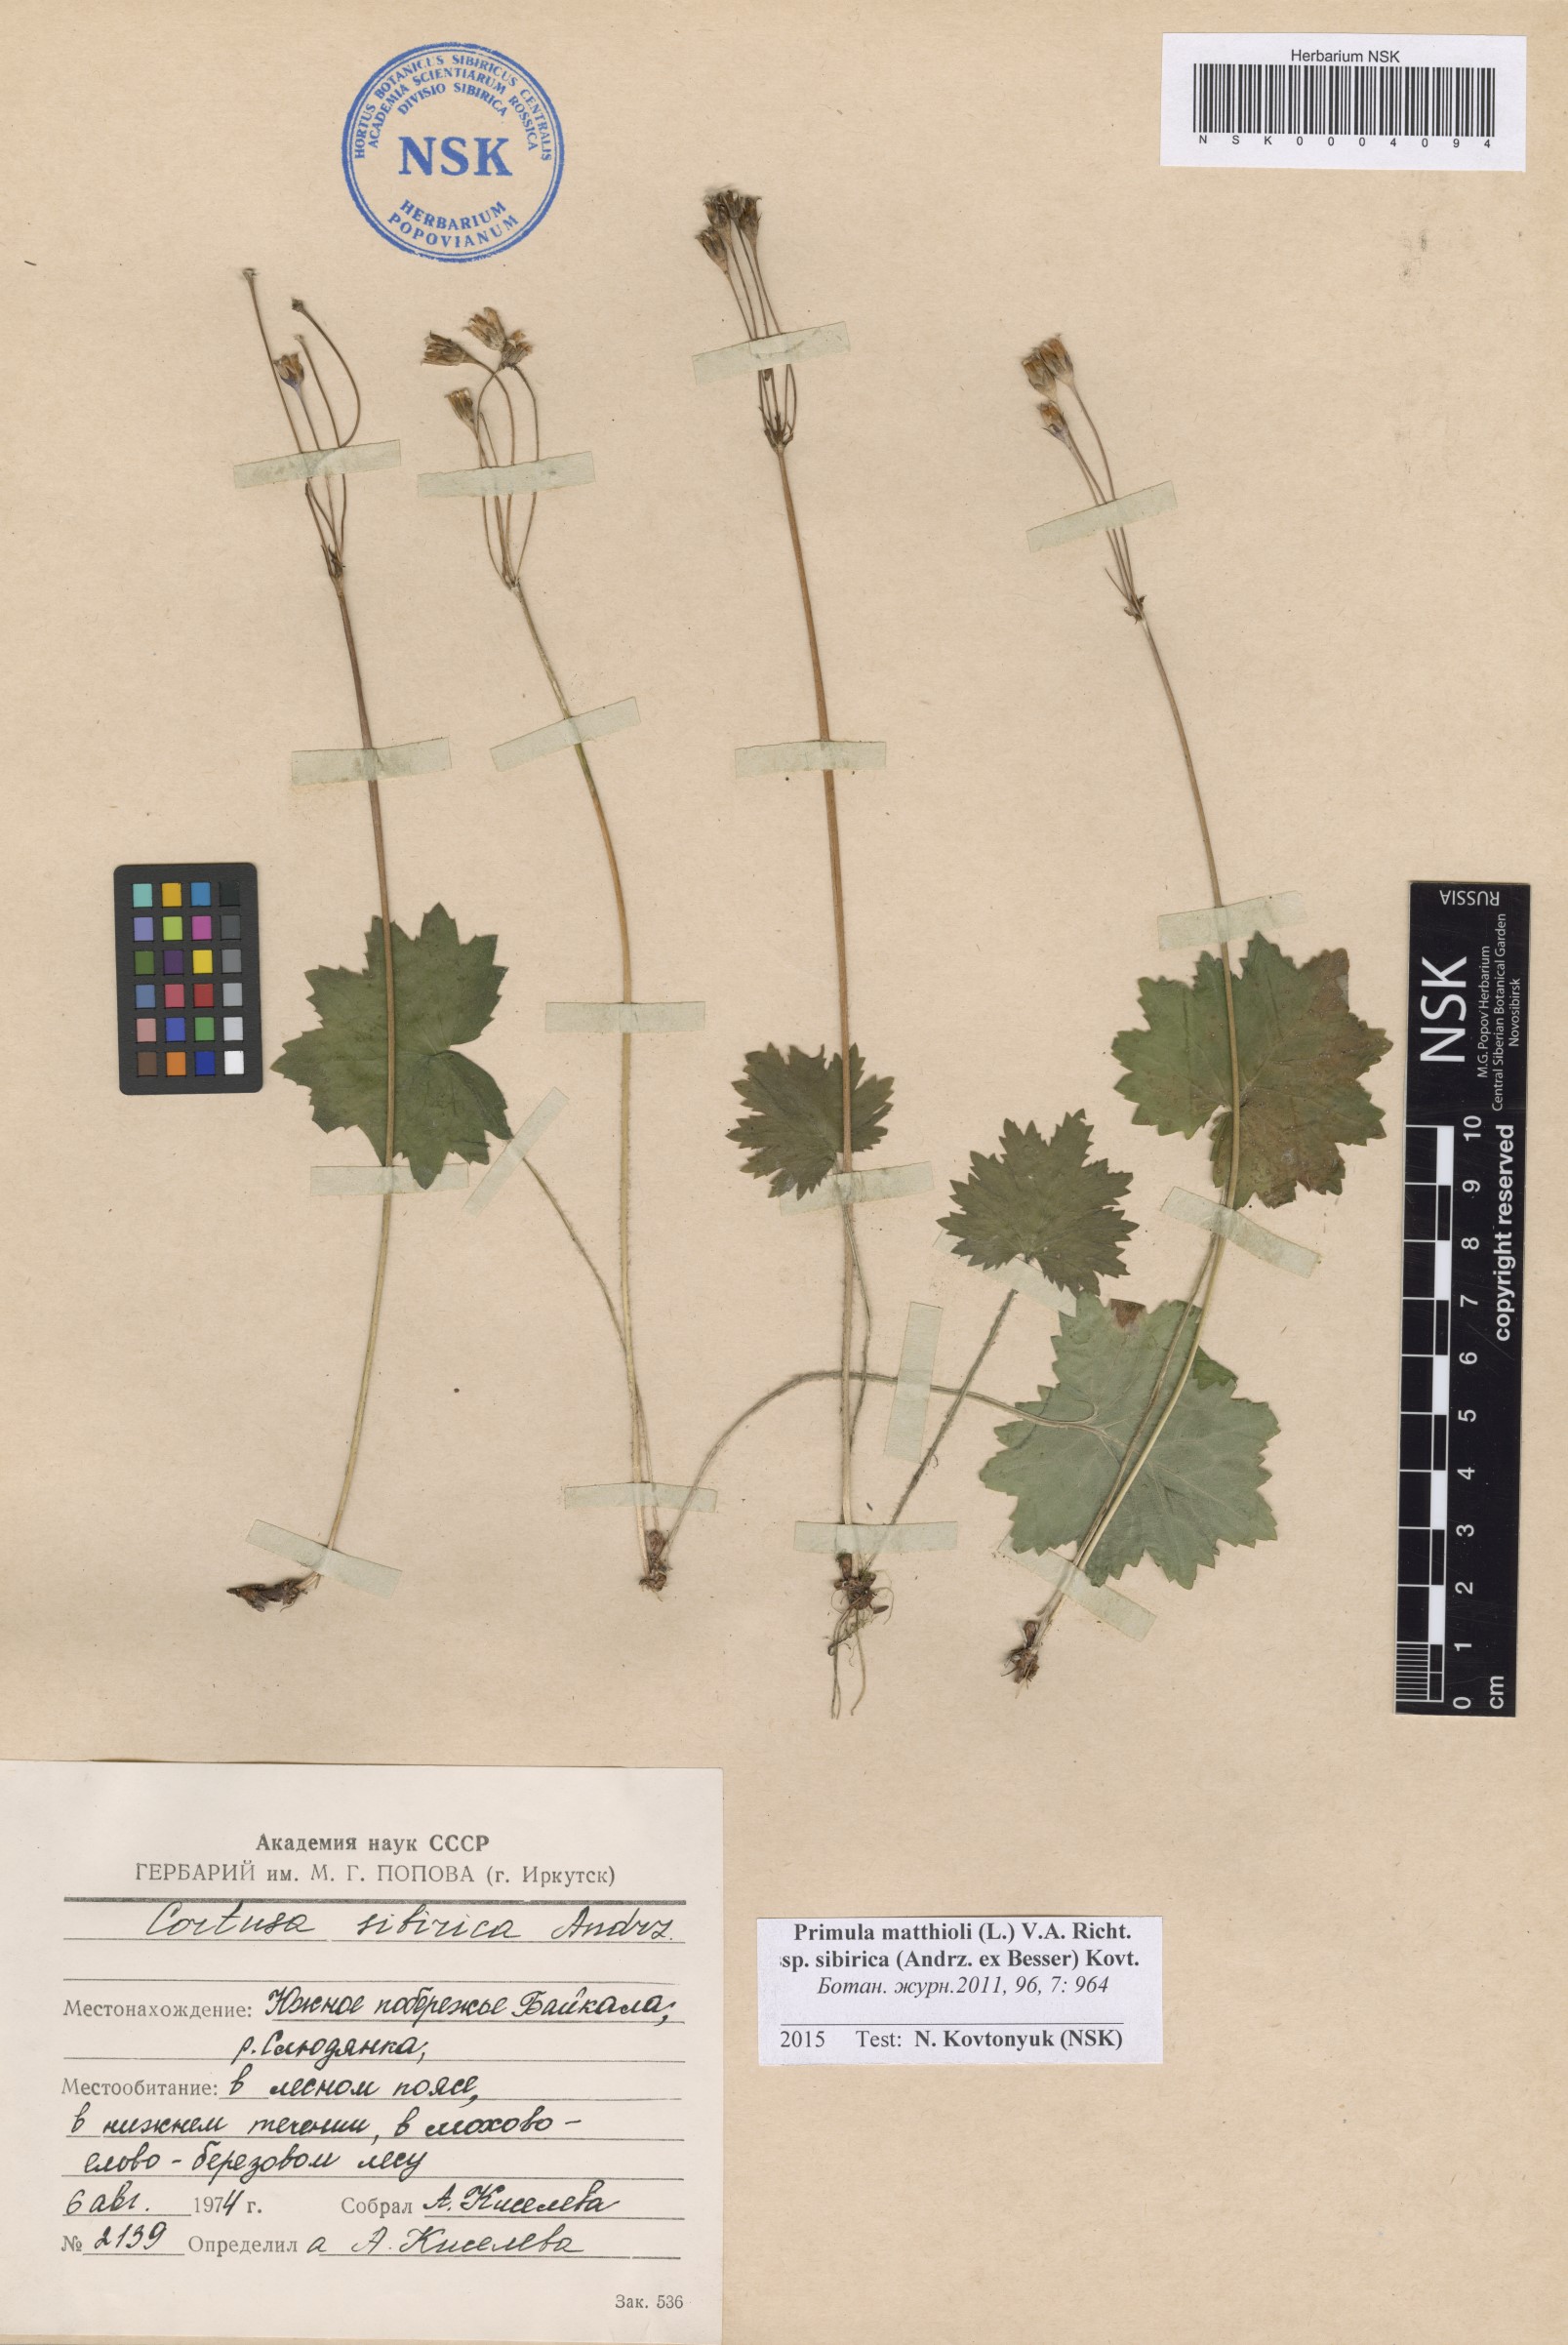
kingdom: Plantae
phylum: Tracheophyta
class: Magnoliopsida
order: Ericales
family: Primulaceae
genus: Primula
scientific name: Primula matthioli
